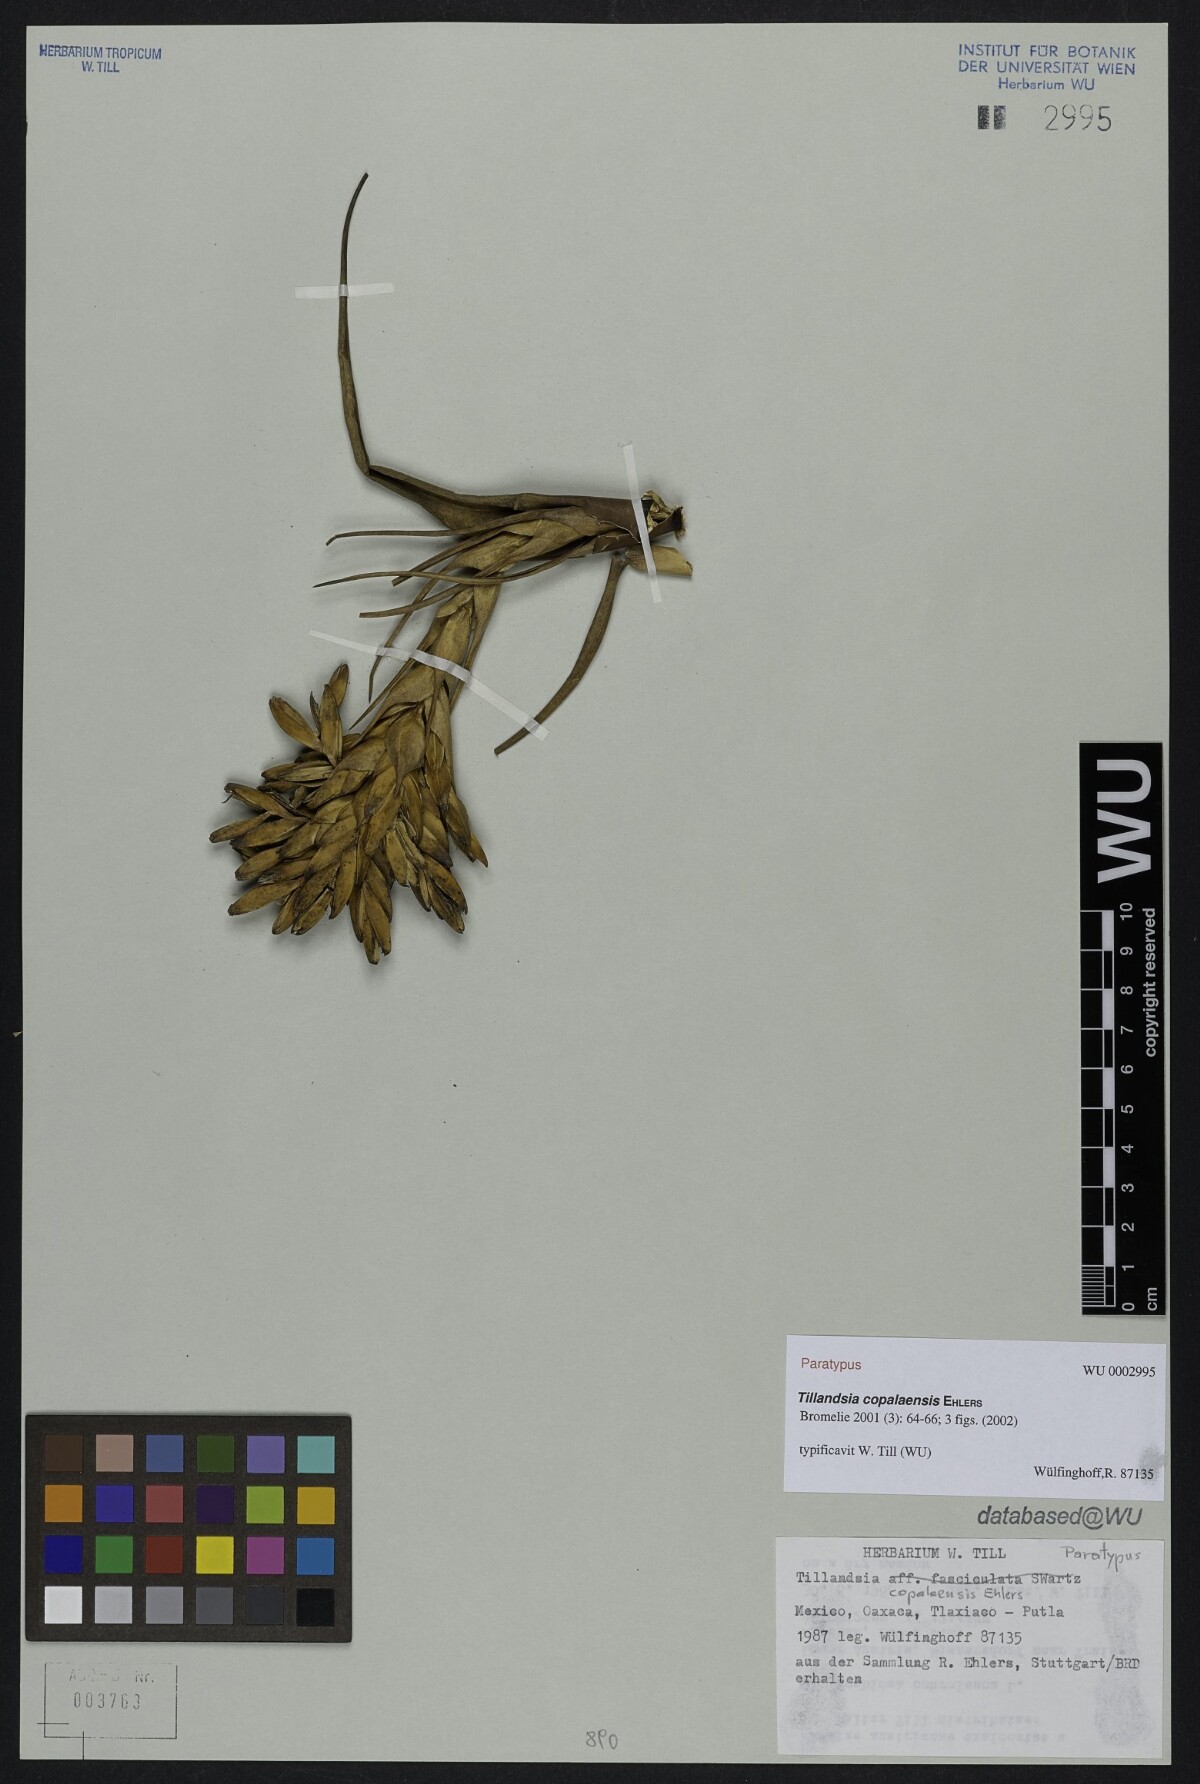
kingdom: Plantae
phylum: Tracheophyta
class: Liliopsida
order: Poales
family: Bromeliaceae
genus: Tillandsia
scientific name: Tillandsia copalaensis
